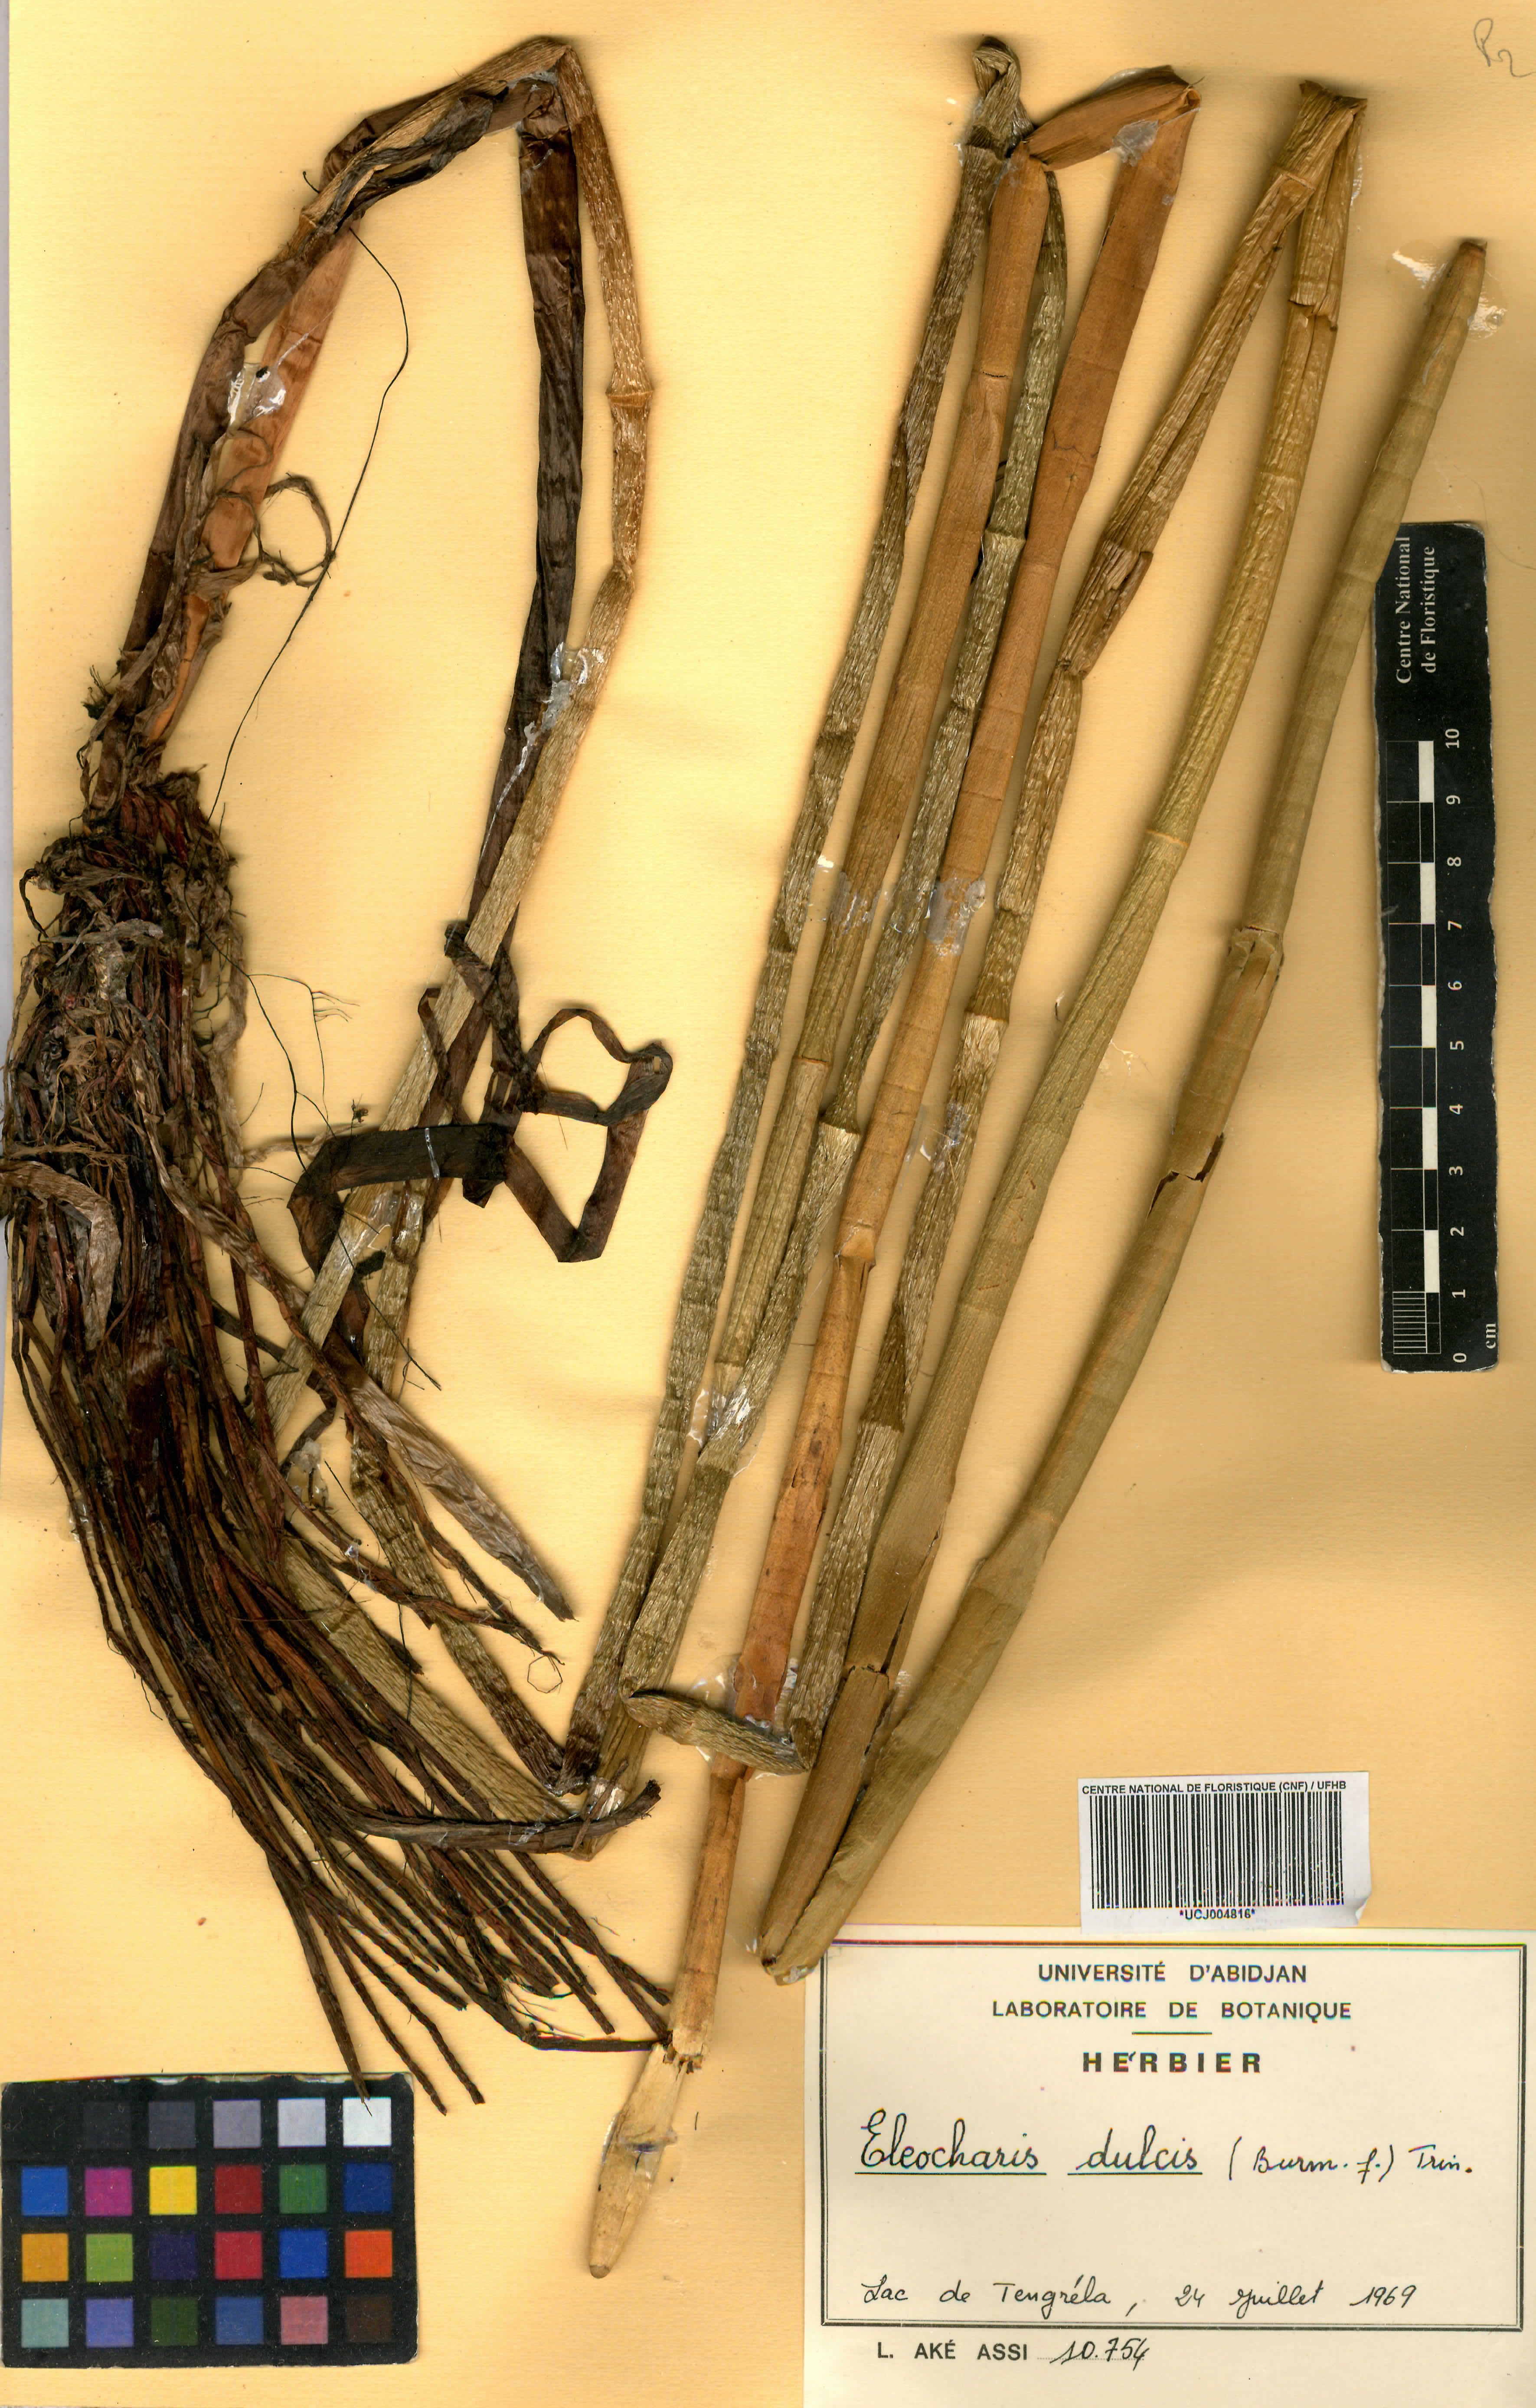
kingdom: Plantae
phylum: Tracheophyta
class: Liliopsida
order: Poales
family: Cyperaceae
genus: Eleocharis
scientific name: Eleocharis dulcis
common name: Chinese water chestnut
